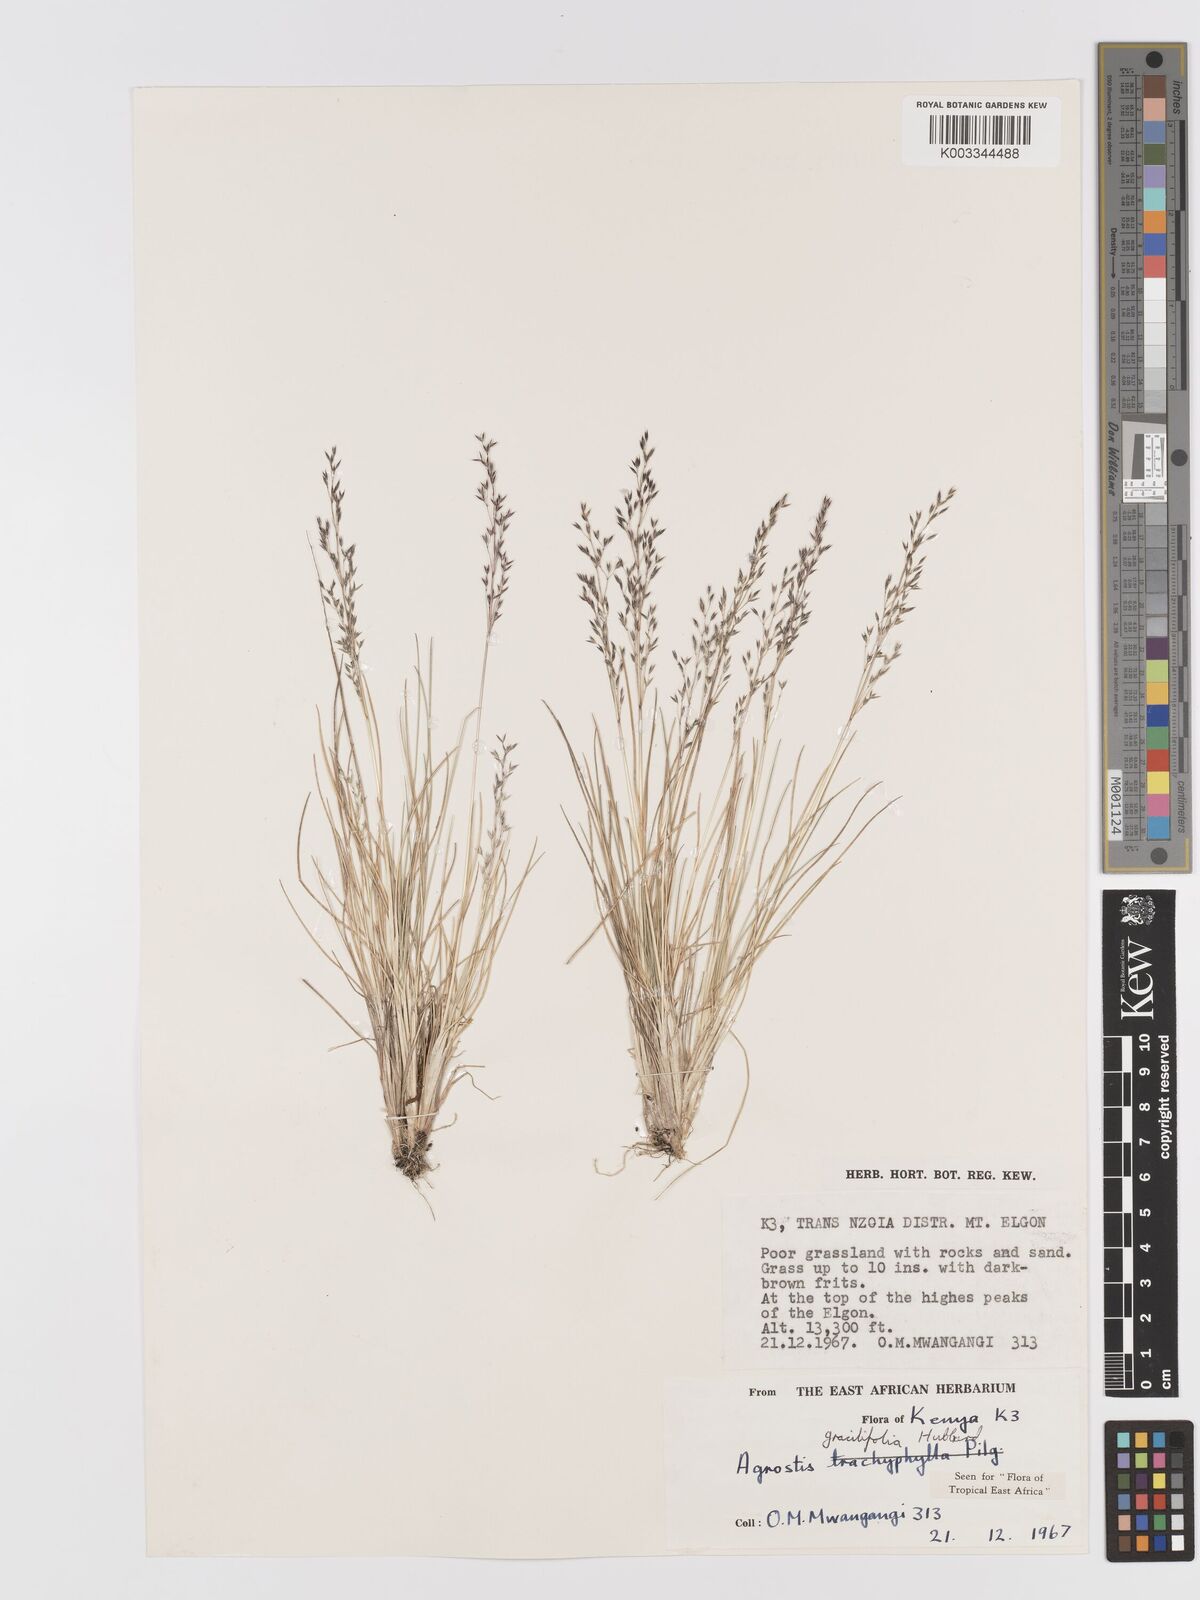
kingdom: Plantae
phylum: Tracheophyta
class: Liliopsida
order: Poales
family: Poaceae
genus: Agrostis
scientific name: Agrostis gracilifolia
